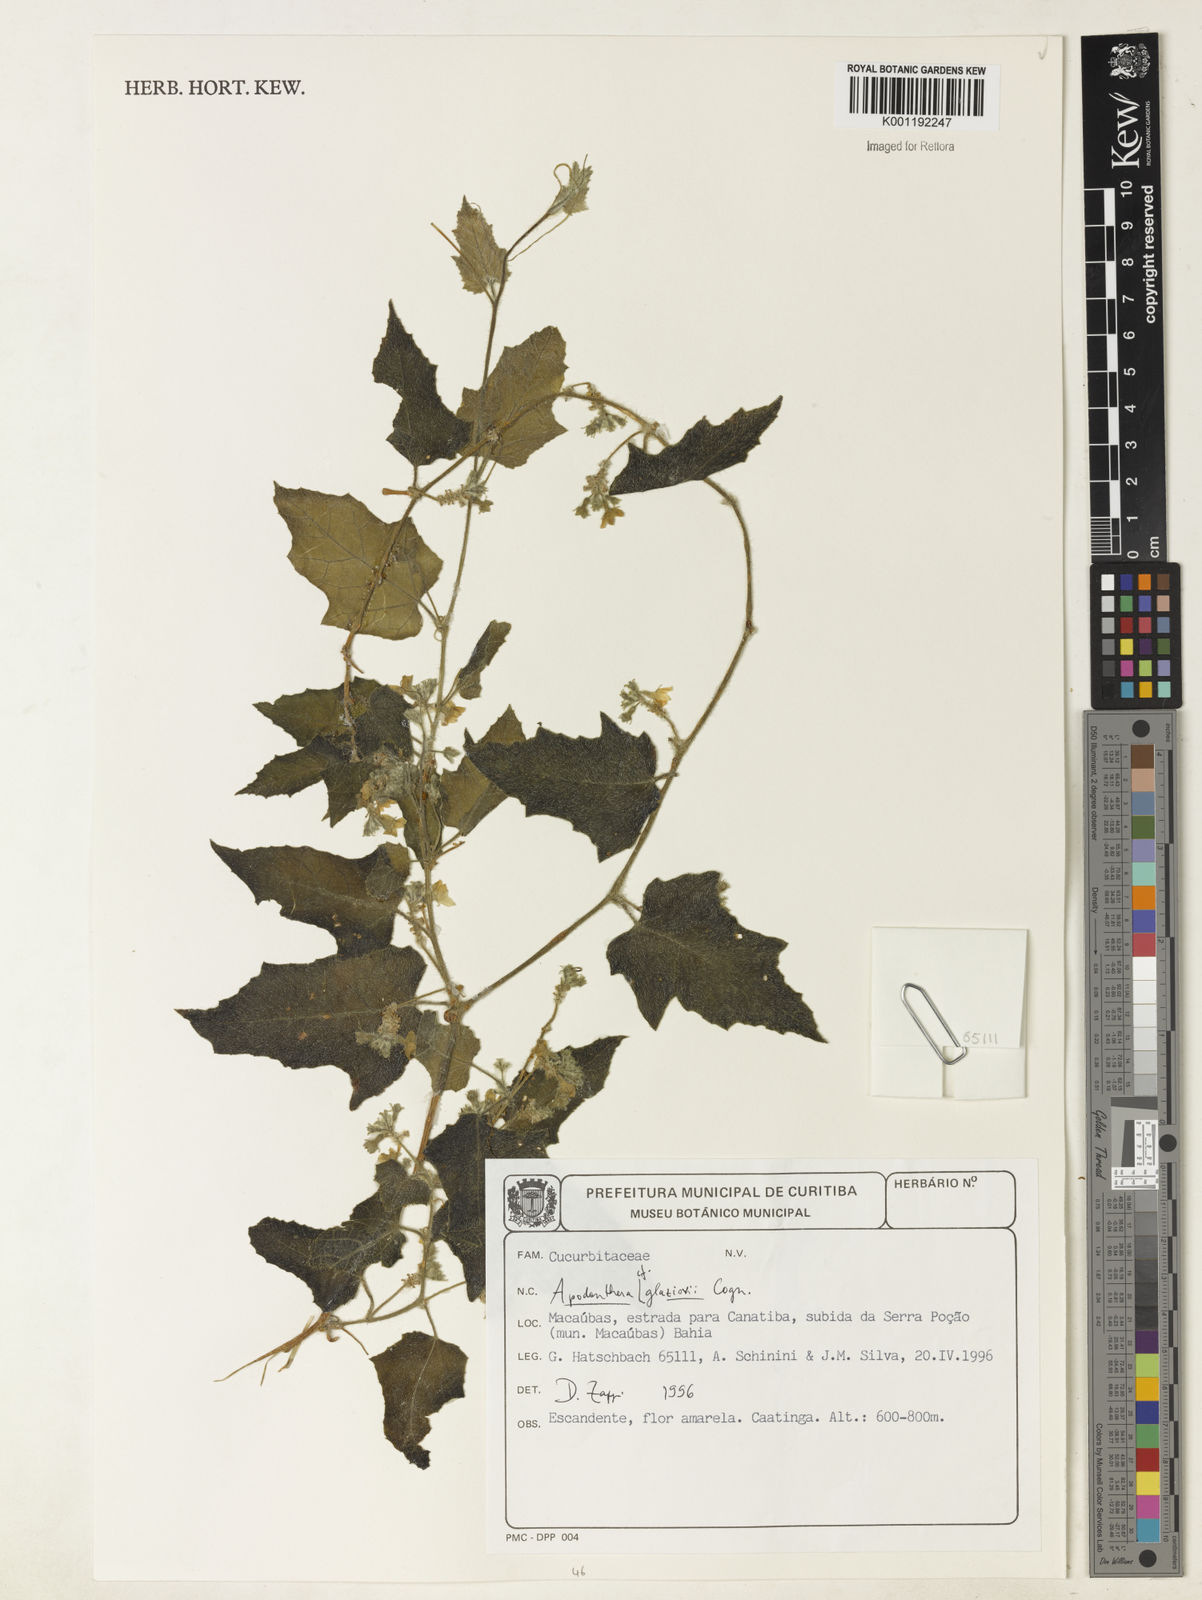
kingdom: Plantae
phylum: Tracheophyta
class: Magnoliopsida
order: Cucurbitales
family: Cucurbitaceae
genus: Apodanthera
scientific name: Apodanthera glaziovii
